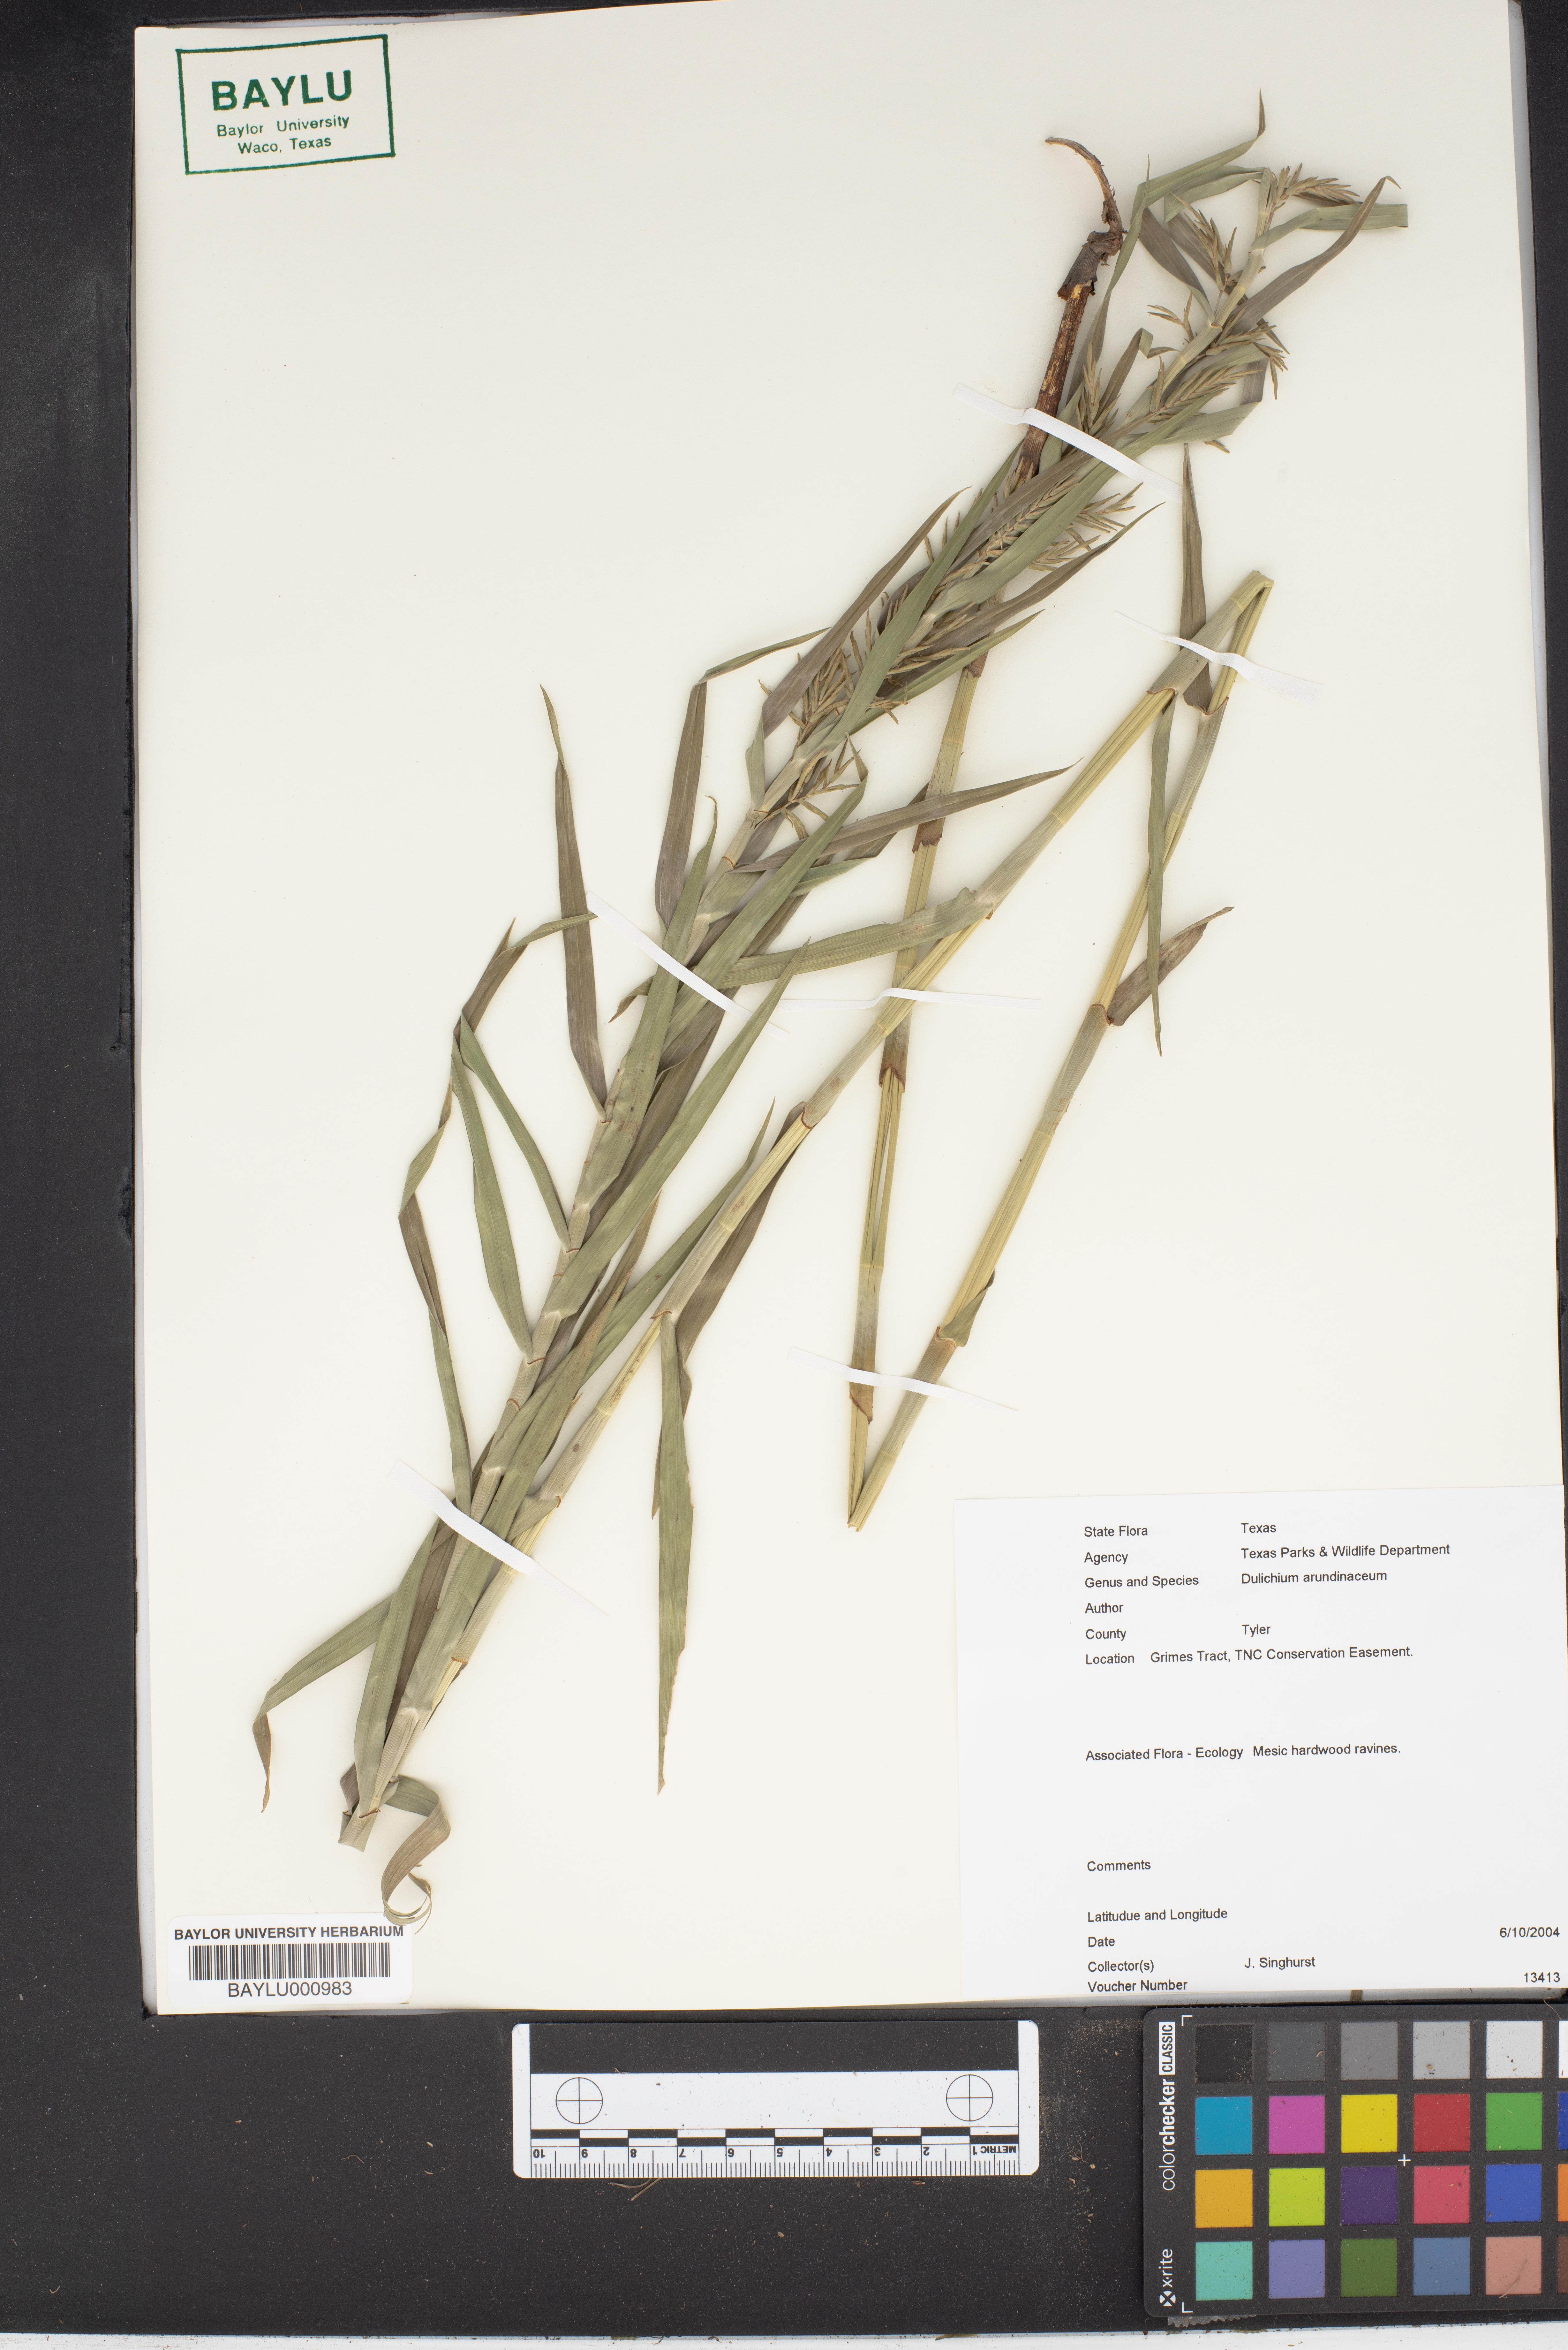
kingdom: Plantae
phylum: Tracheophyta
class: Liliopsida
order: Poales
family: Cyperaceae
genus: Dulichium
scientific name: Dulichium arundinaceum
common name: Three-way sedge
